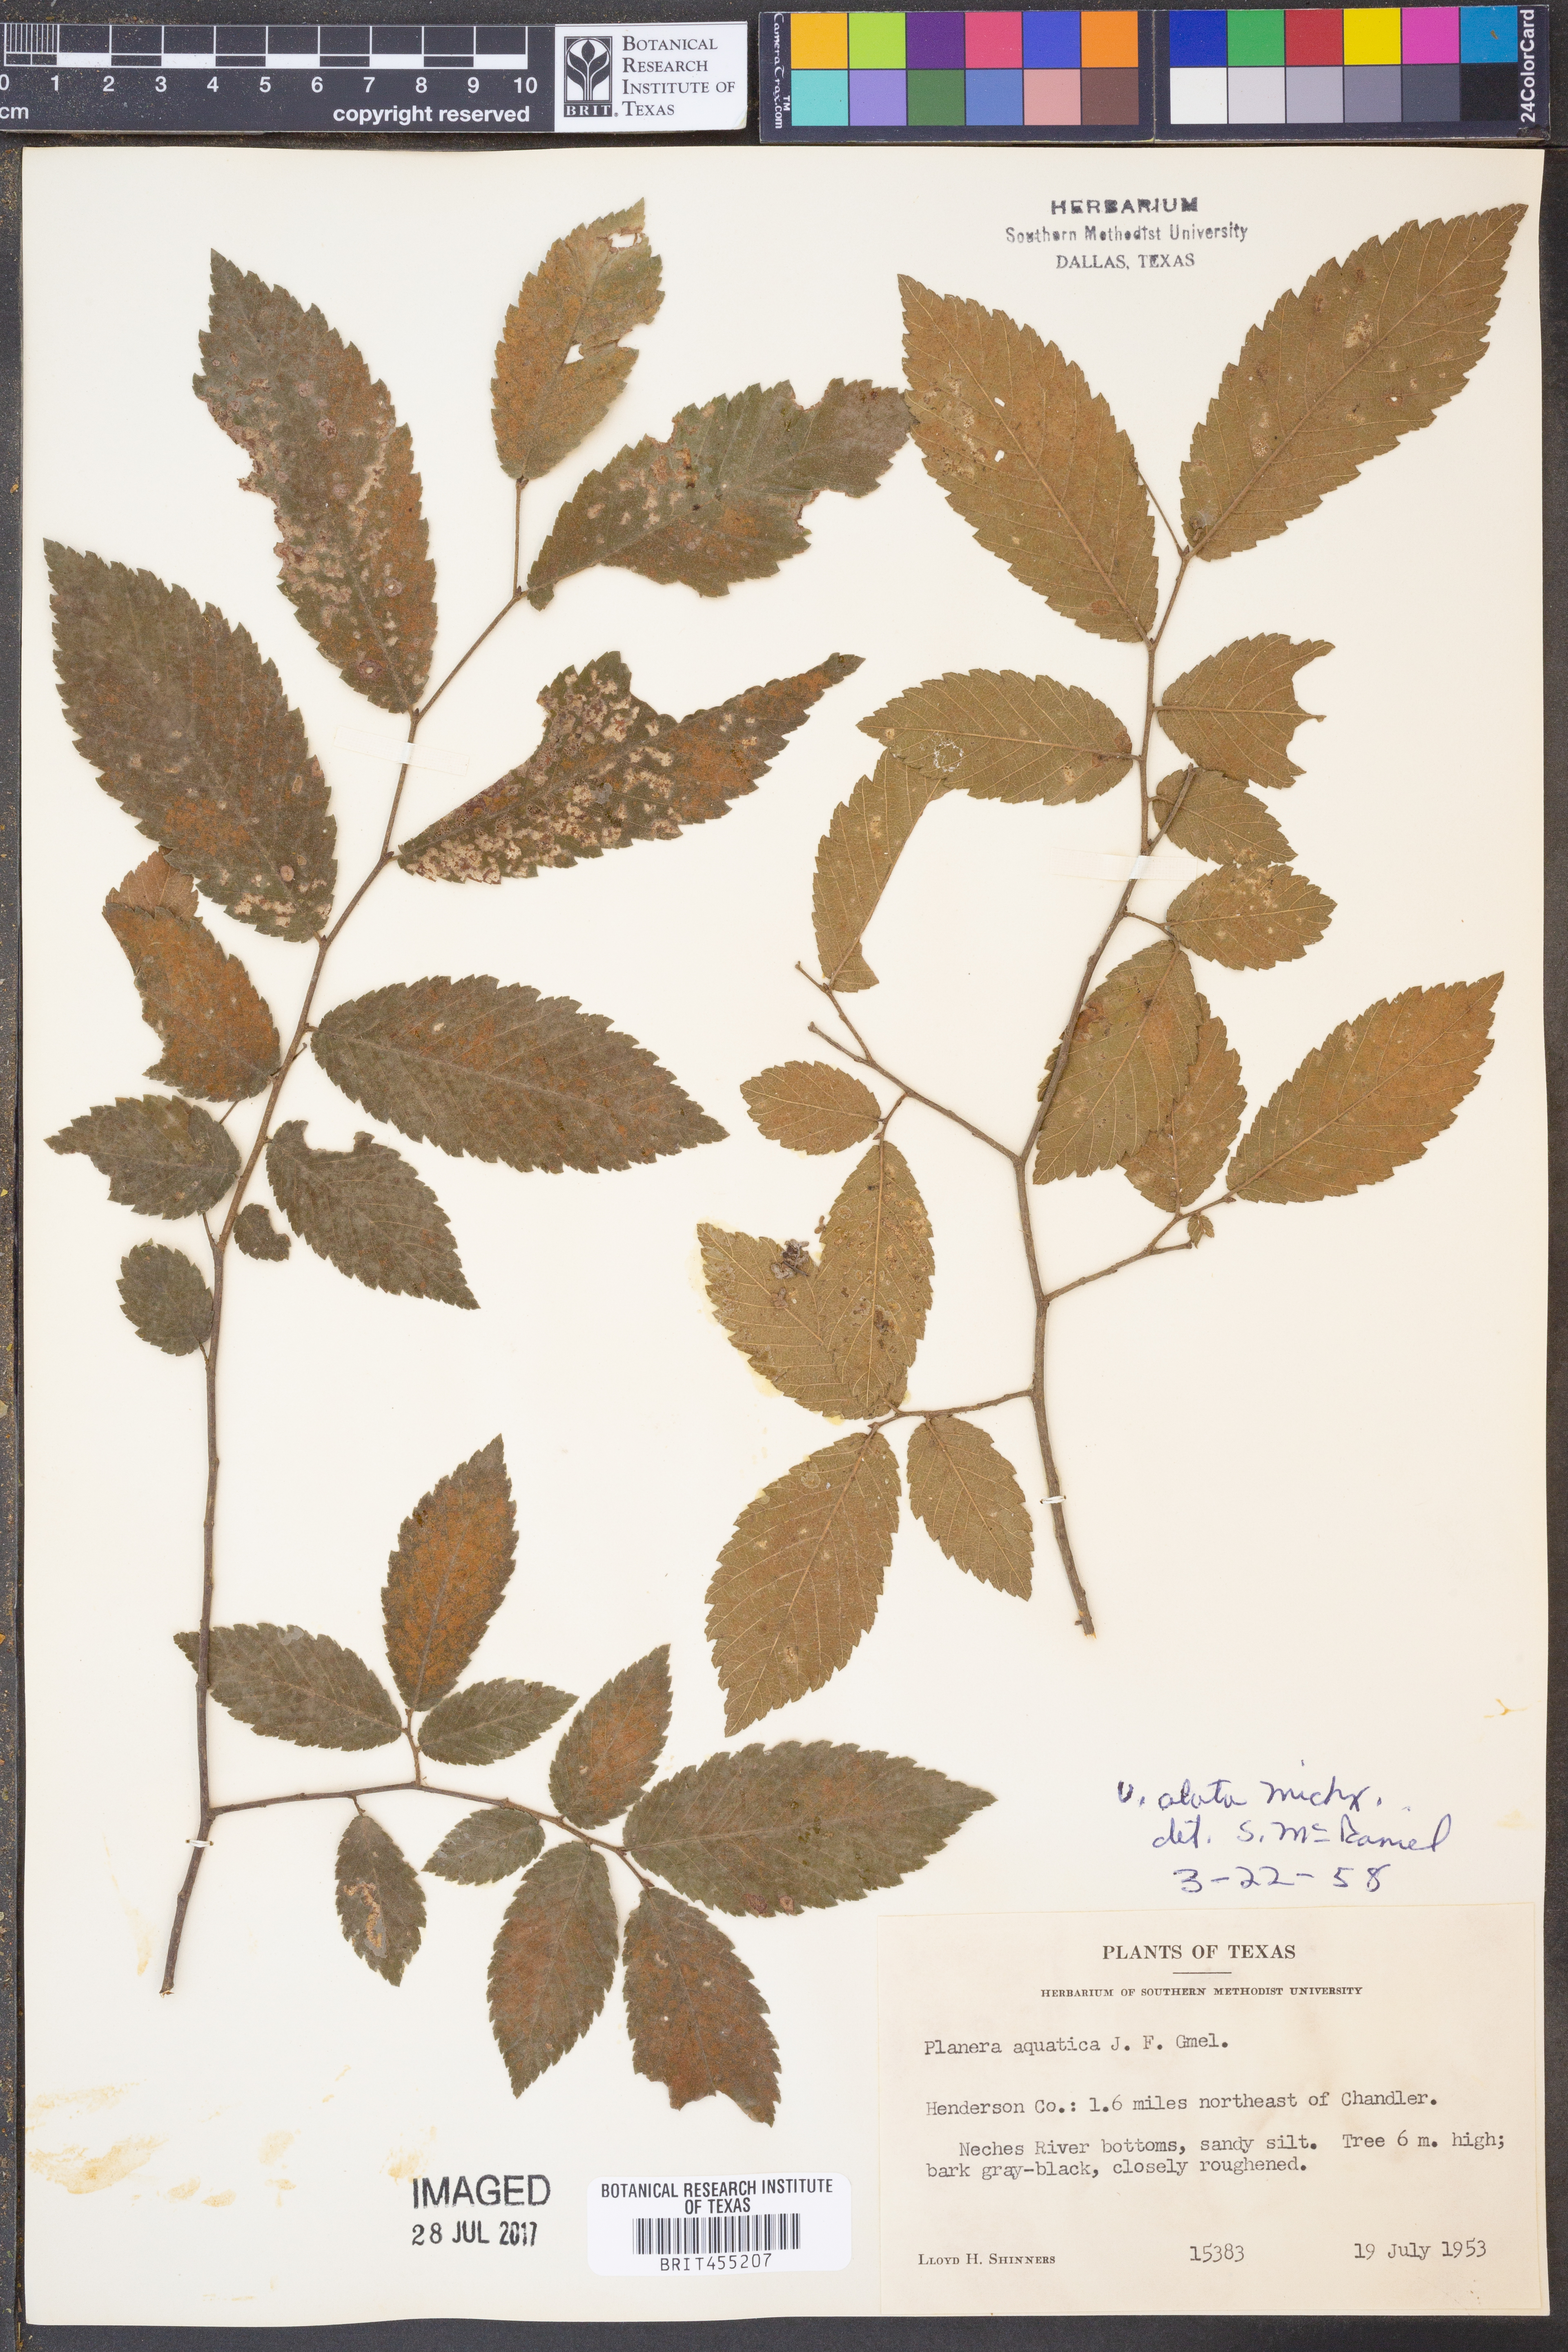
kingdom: Plantae
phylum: Tracheophyta
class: Magnoliopsida
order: Rosales
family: Ulmaceae
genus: Ulmus
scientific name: Ulmus alata
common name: Winged elm
